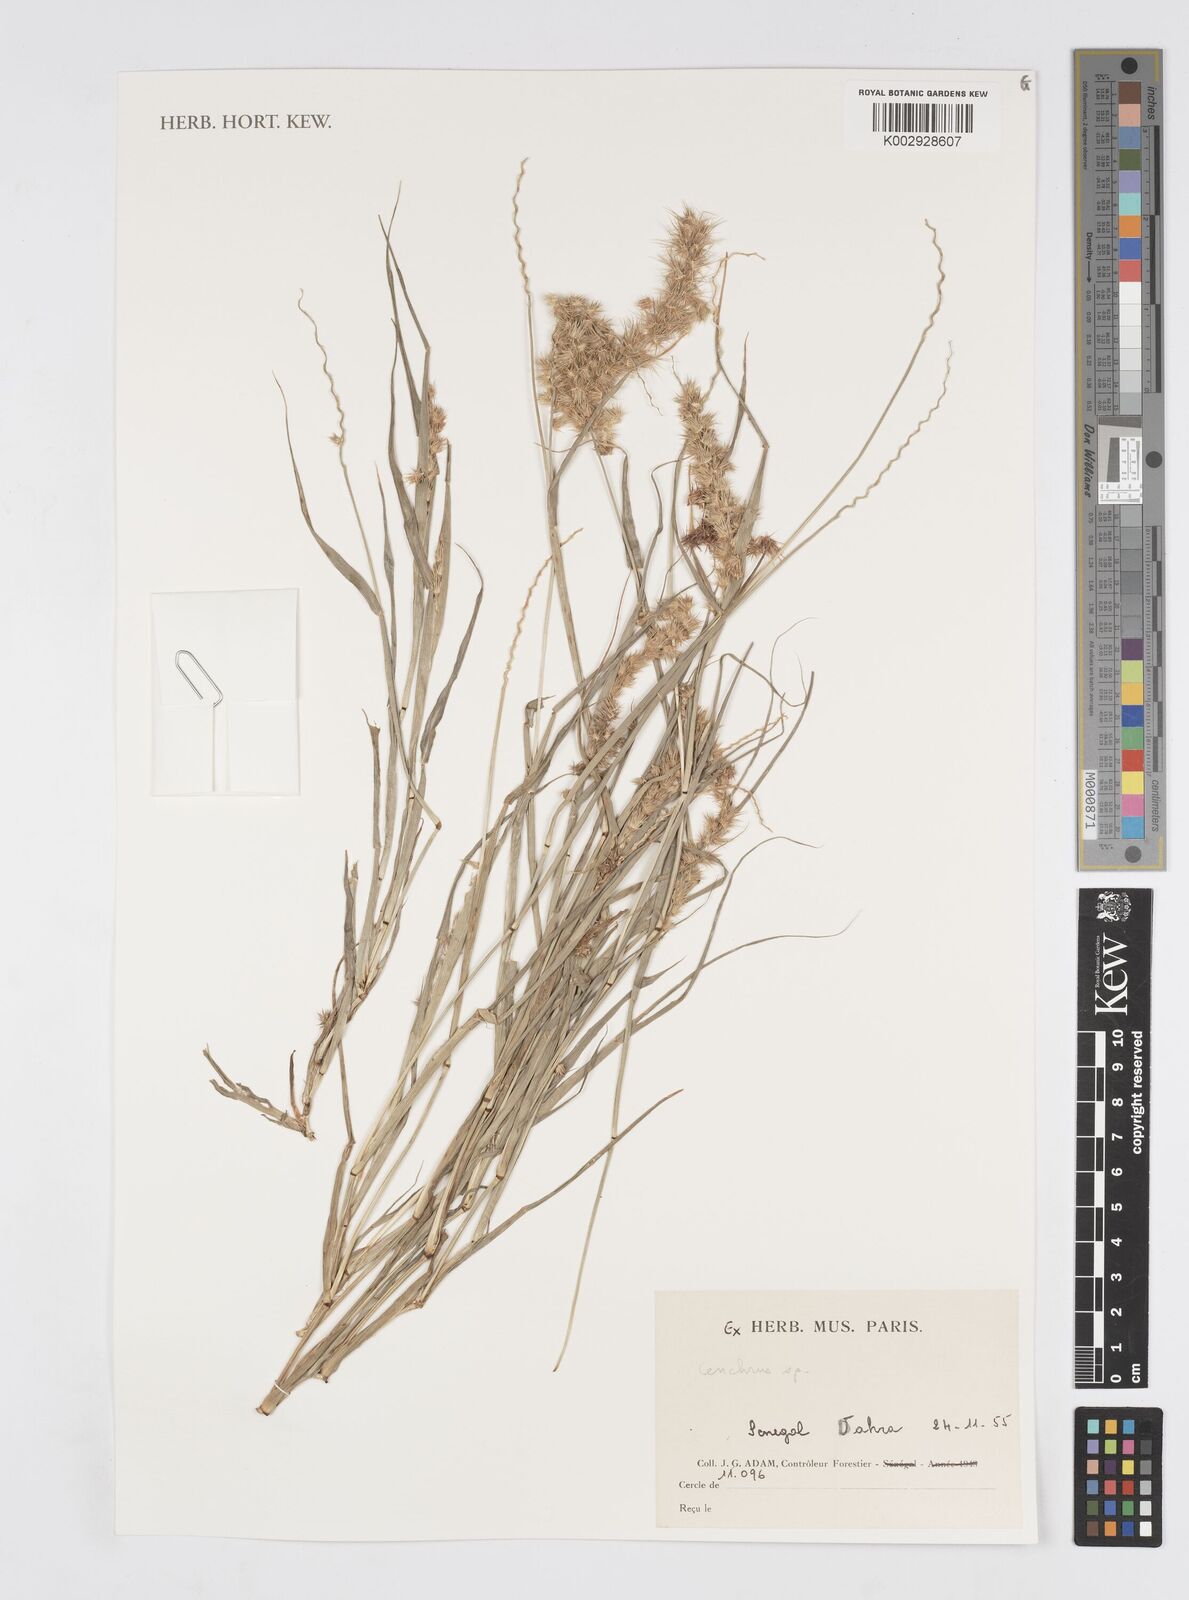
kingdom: Plantae
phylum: Tracheophyta
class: Liliopsida
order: Poales
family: Poaceae
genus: Cenchrus
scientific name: Cenchrus
